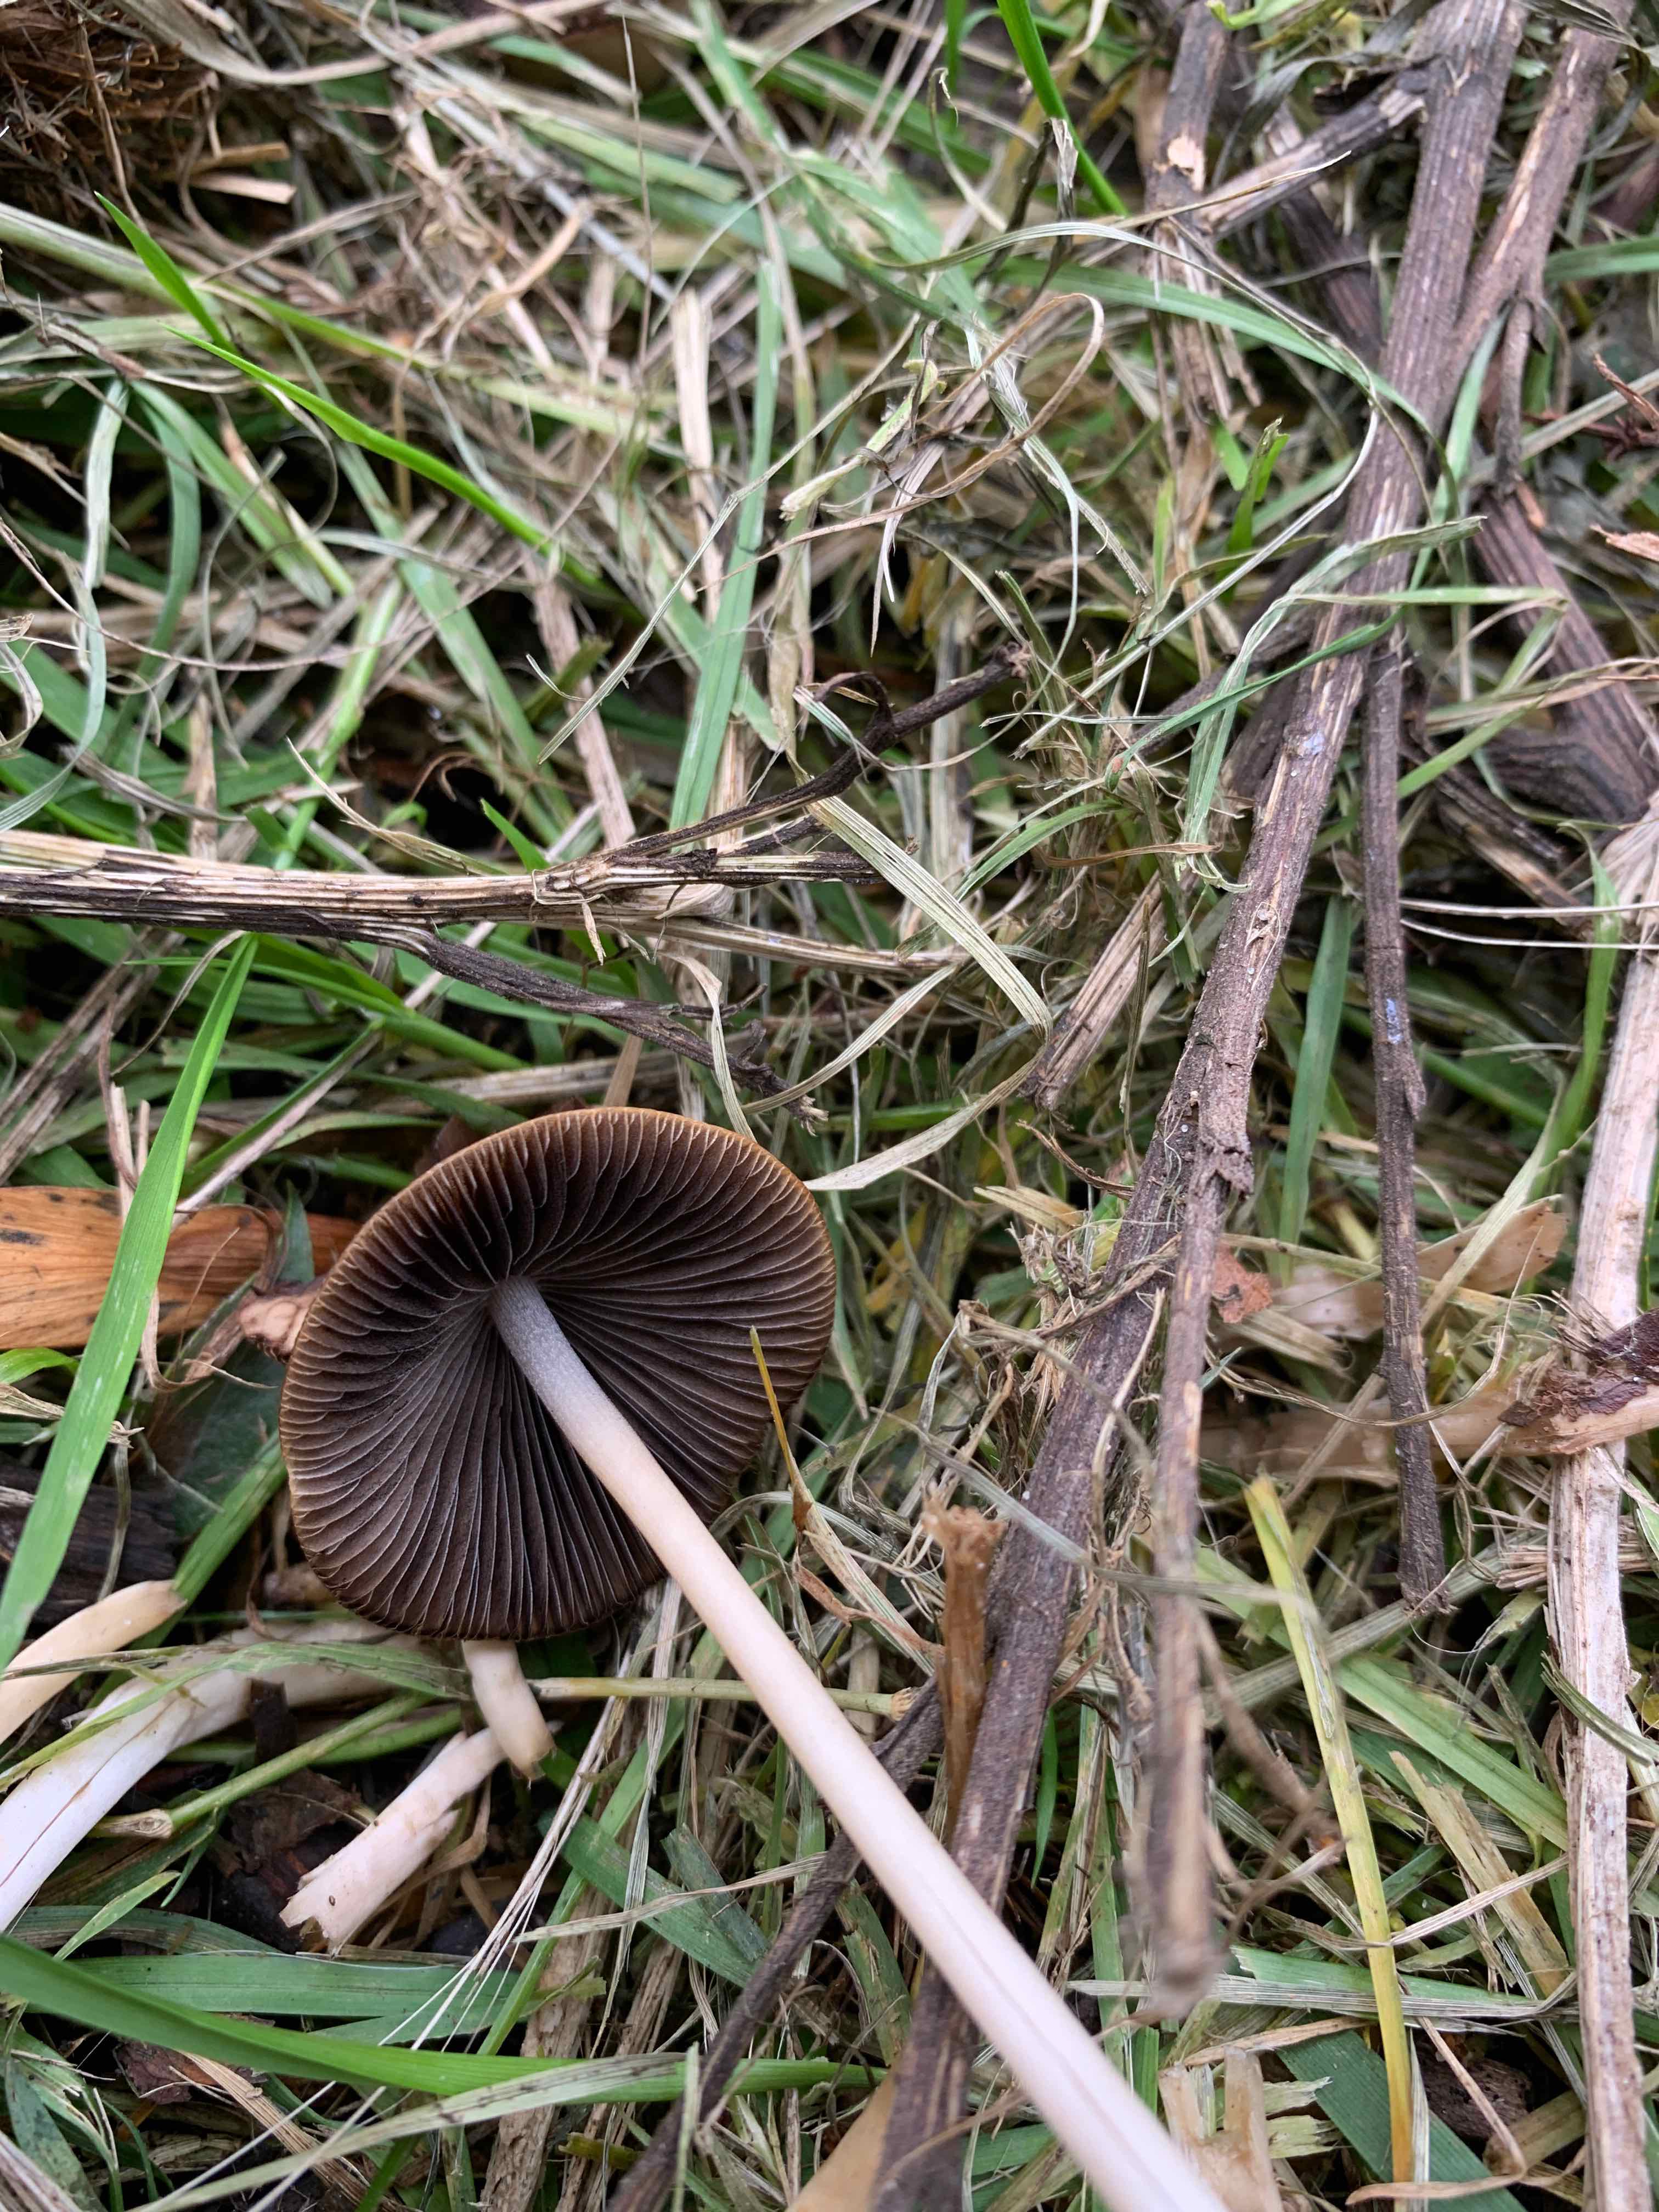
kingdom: Fungi
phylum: Basidiomycota
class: Agaricomycetes
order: Agaricales
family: Psathyrellaceae
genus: Parasola
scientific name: Parasola conopilea
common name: kegle-hjulhat
